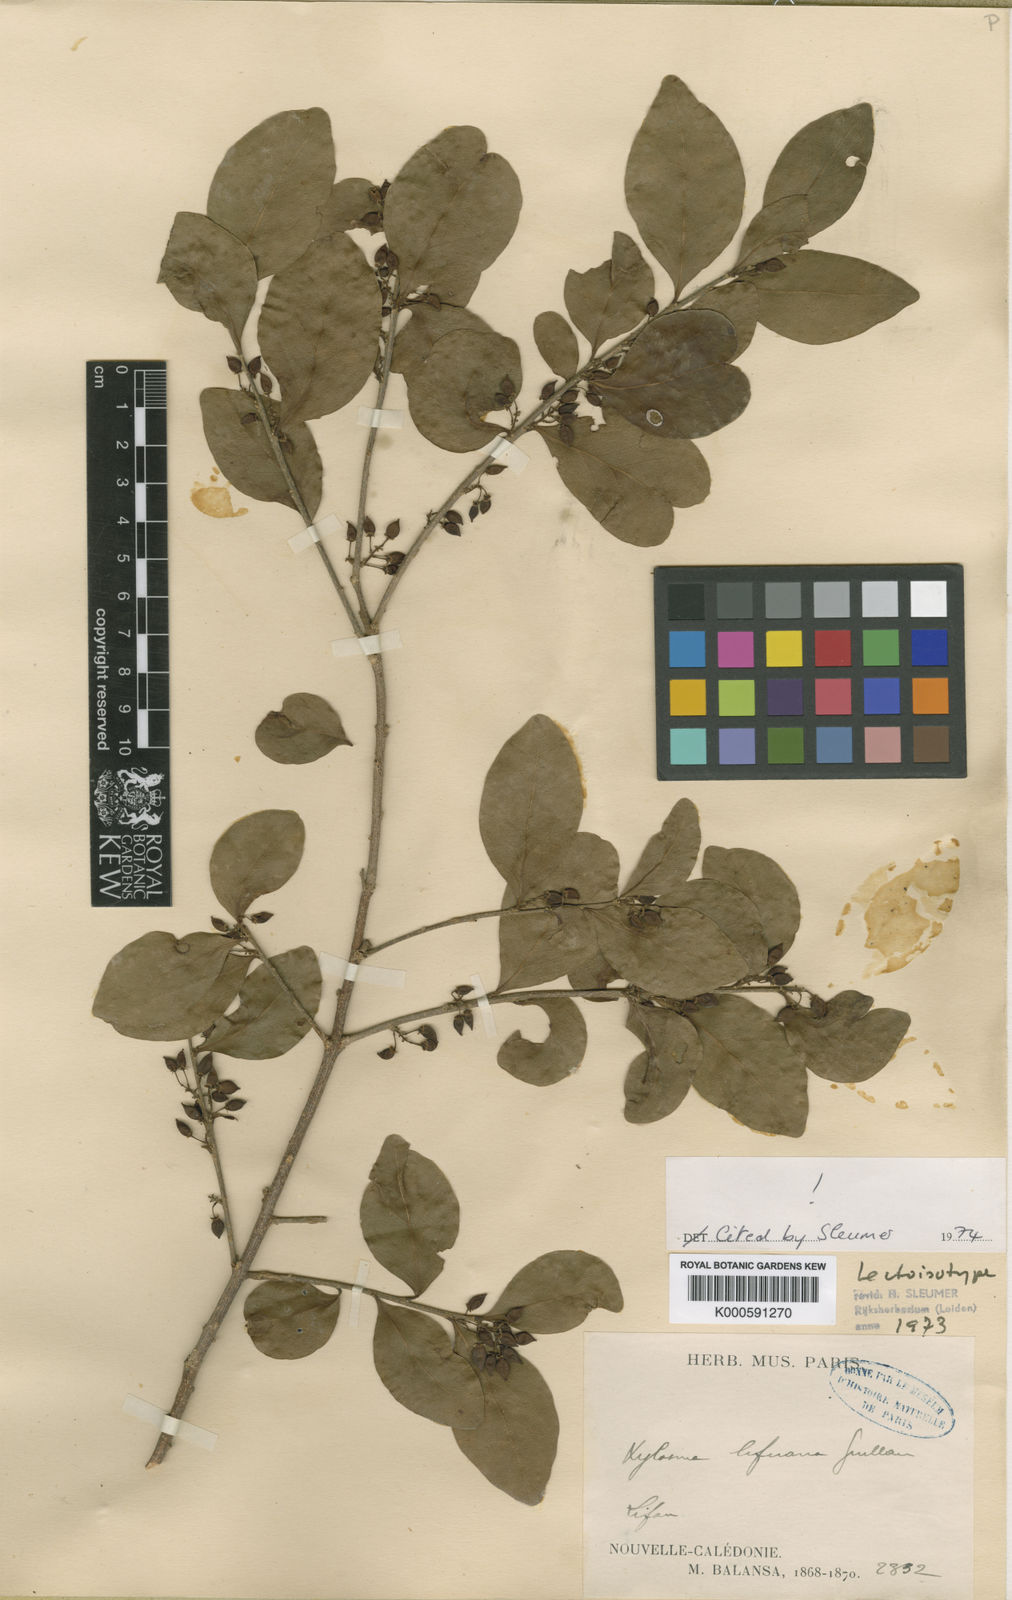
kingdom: Plantae
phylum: Tracheophyta
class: Magnoliopsida
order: Malpighiales
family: Salicaceae
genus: Xylosma
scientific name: Xylosma lifuana
